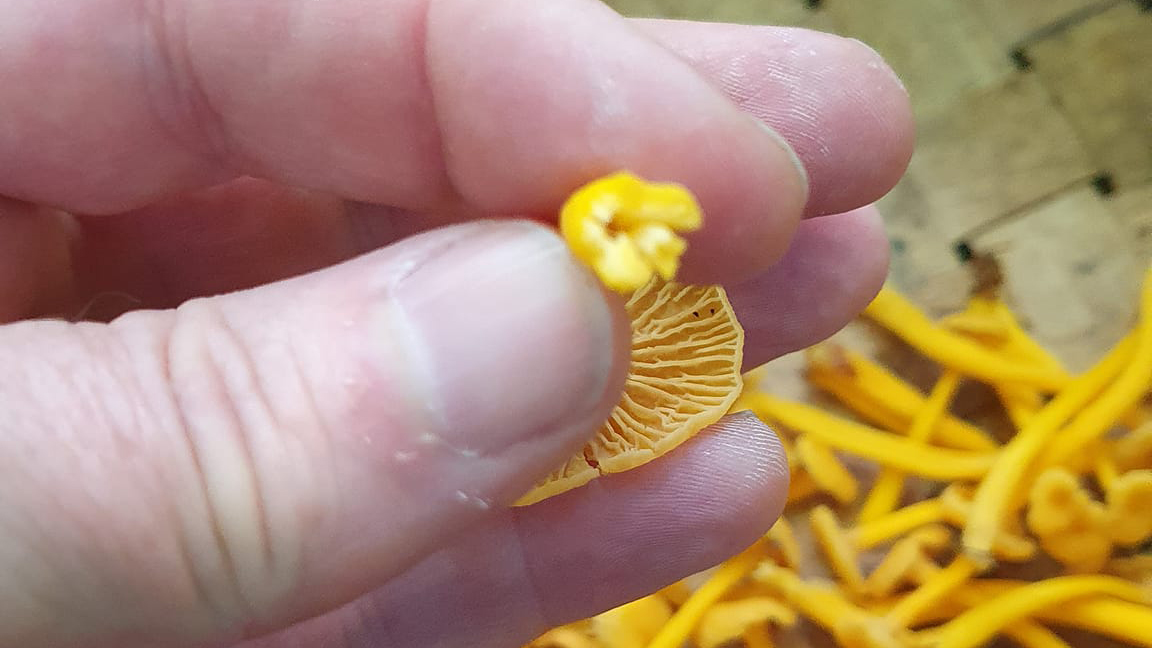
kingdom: Fungi
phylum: Basidiomycota
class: Agaricomycetes
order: Cantharellales
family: Hydnaceae
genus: Craterellus
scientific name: Craterellus tubaeformis
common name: tragt-kantarel
